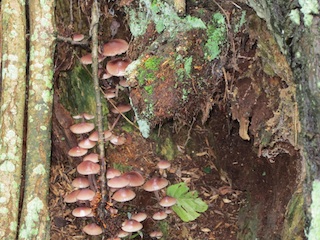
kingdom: Fungi
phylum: Basidiomycota
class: Agaricomycetes
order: Agaricales
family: Mycenaceae
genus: Mycena
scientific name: Mycena haematopus
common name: blødende huesvamp
